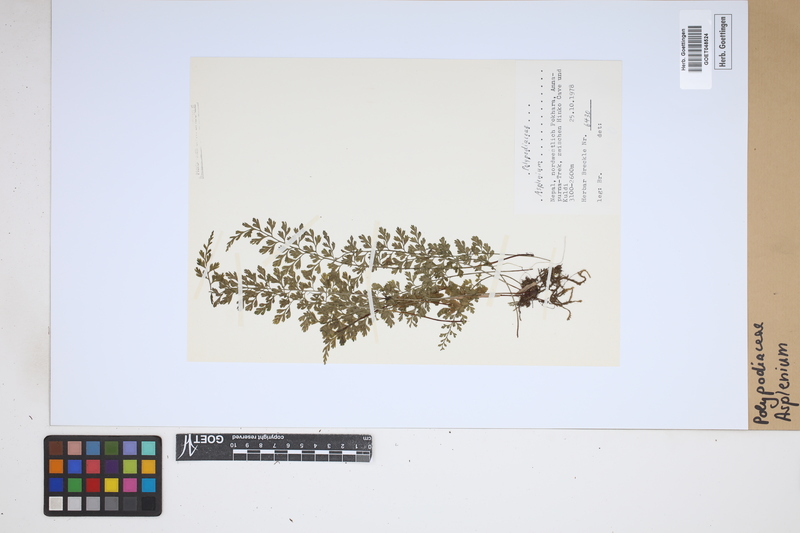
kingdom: Plantae
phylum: Tracheophyta
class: Polypodiopsida
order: Polypodiales
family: Aspleniaceae
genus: Asplenium
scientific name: Asplenium
